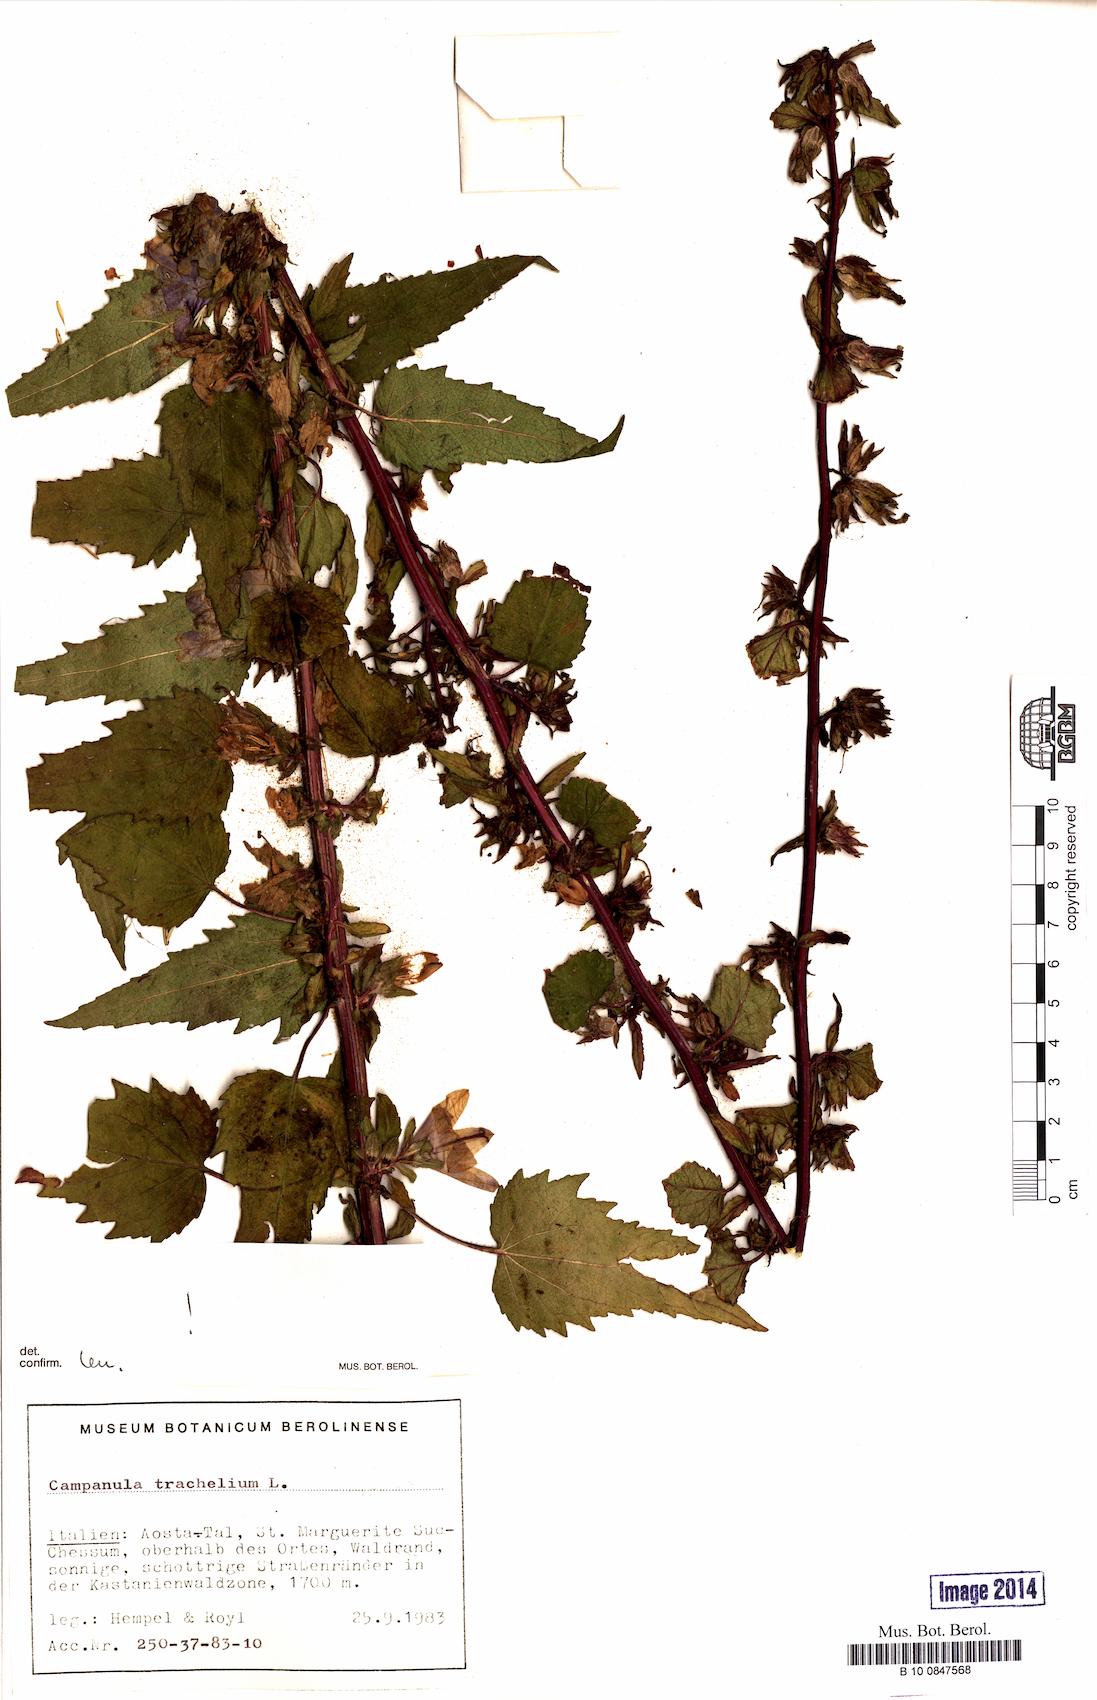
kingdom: Plantae
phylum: Tracheophyta
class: Magnoliopsida
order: Asterales
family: Campanulaceae
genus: Campanula
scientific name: Campanula trachelium
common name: Nettle-leaved bellflower
